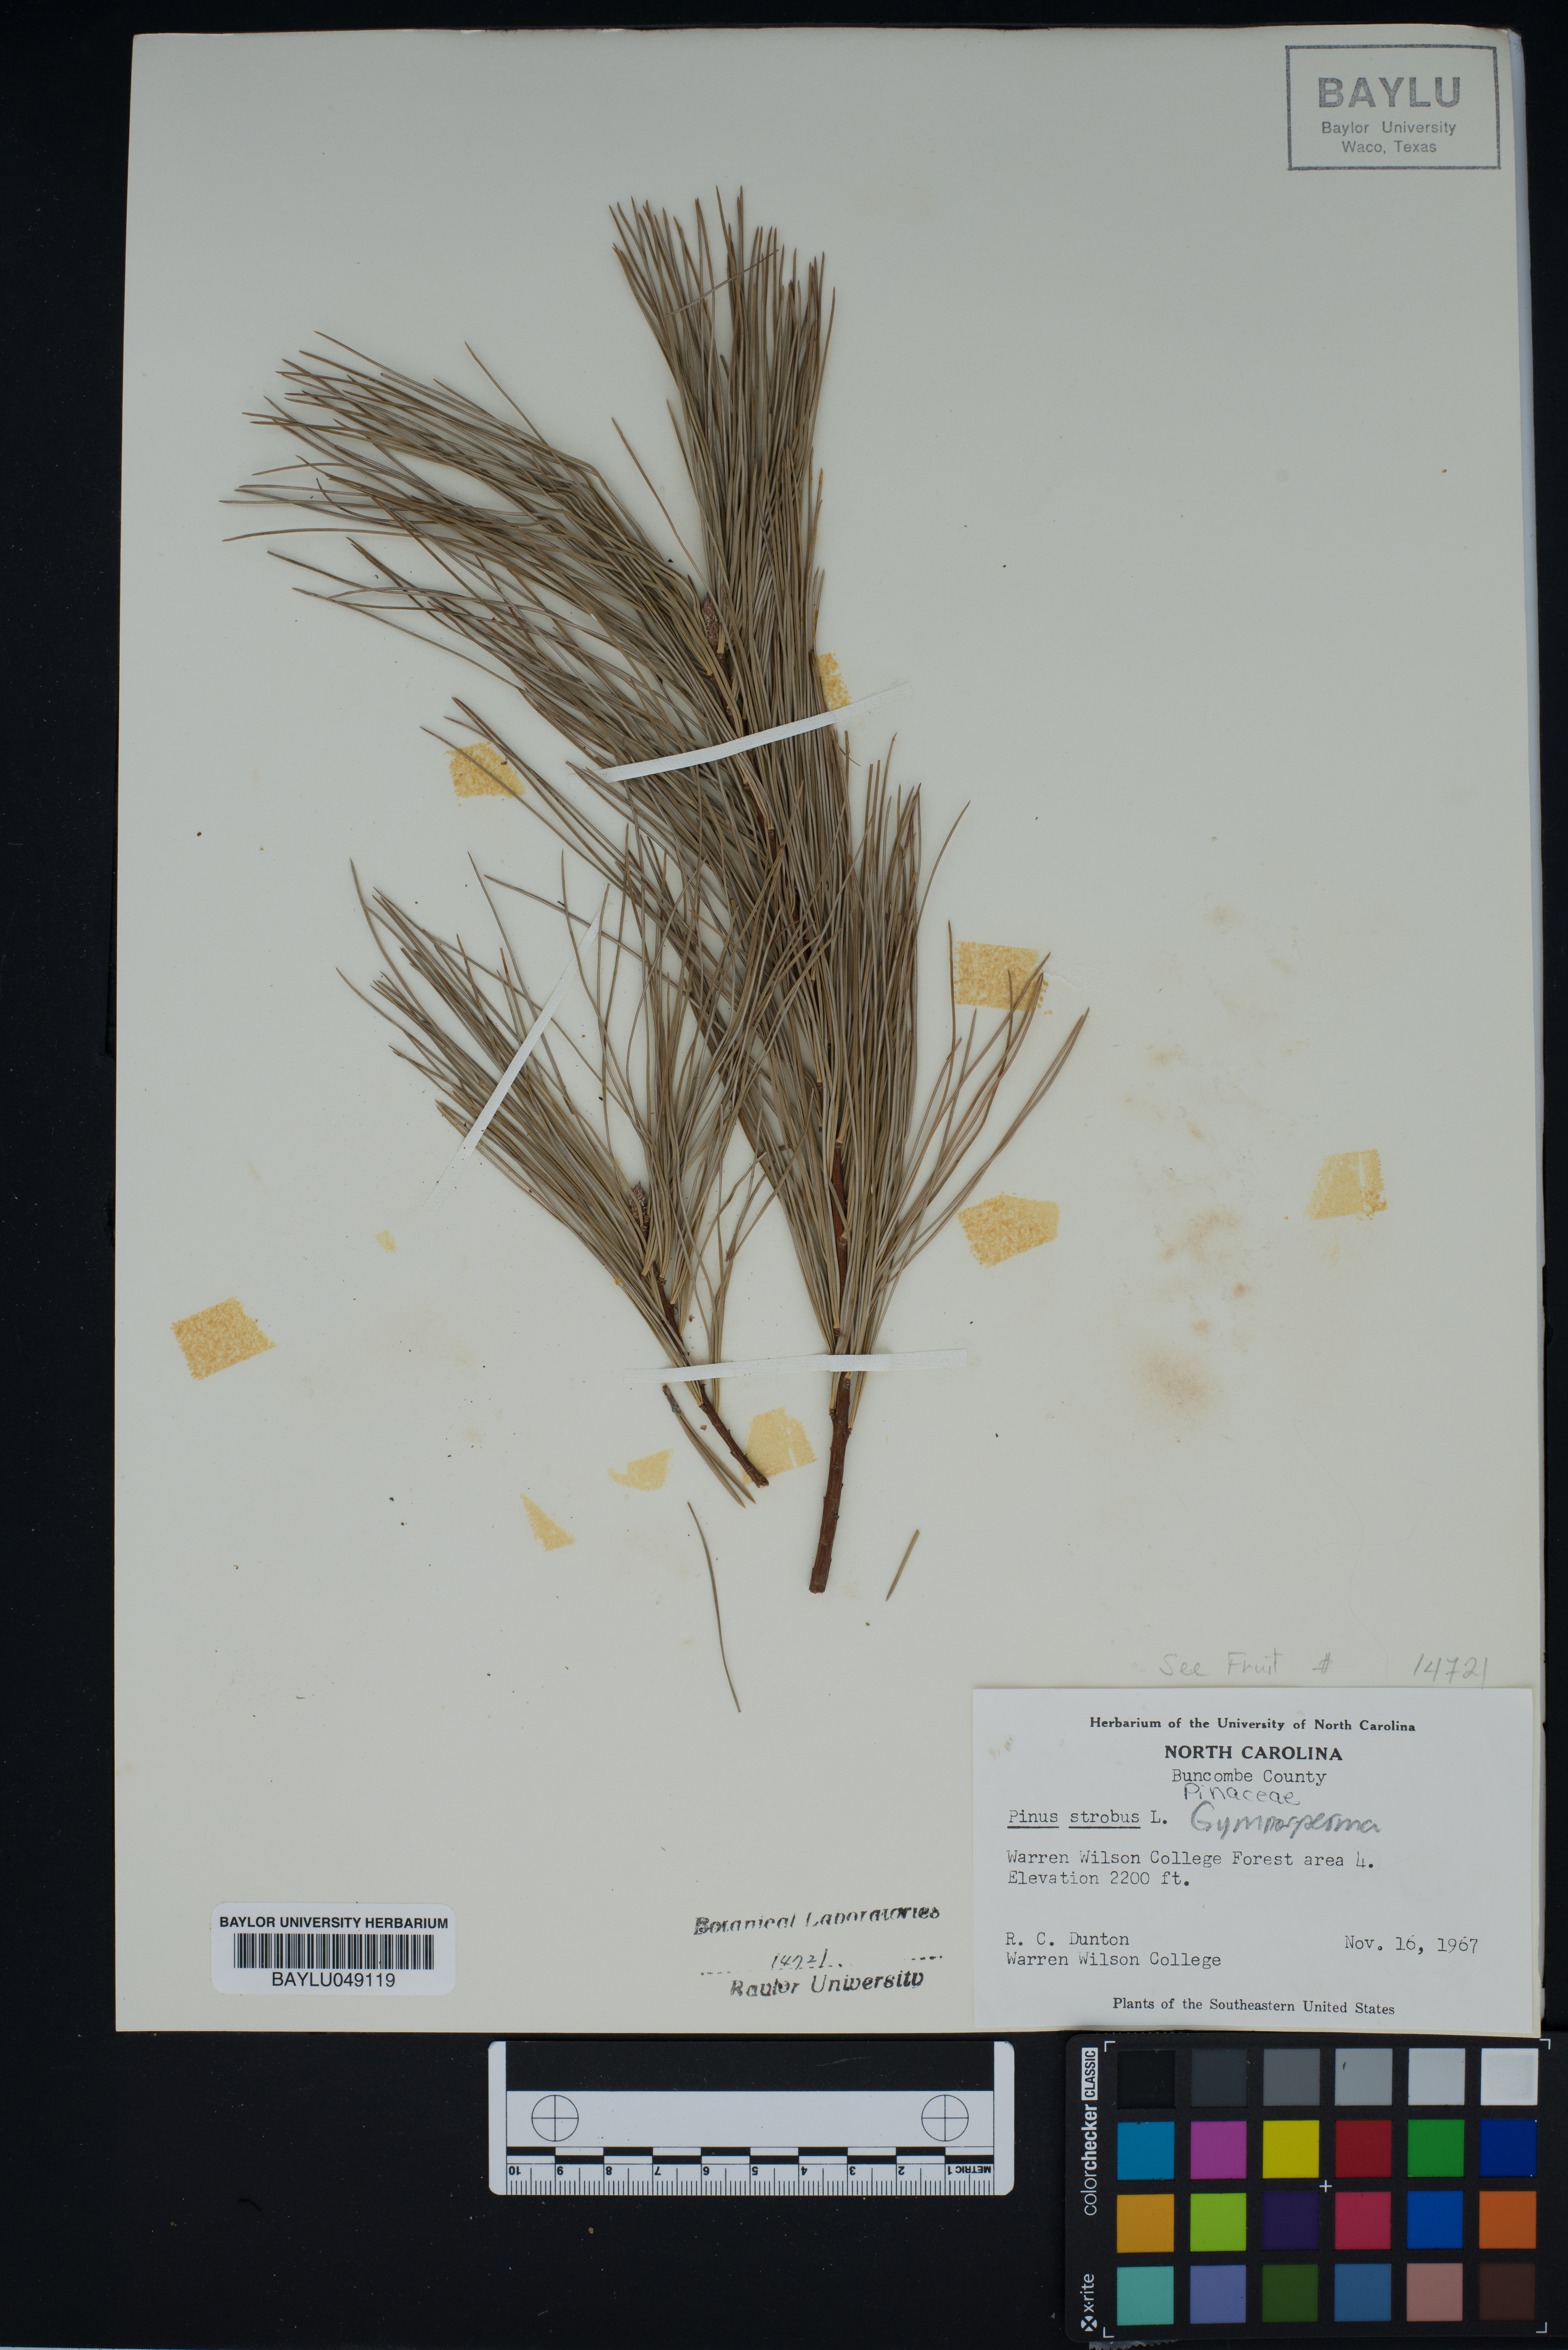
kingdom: Plantae
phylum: Tracheophyta
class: Pinopsida
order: Pinales
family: Pinaceae
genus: Pinus
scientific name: Pinus strobus
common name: Weymouth pine
